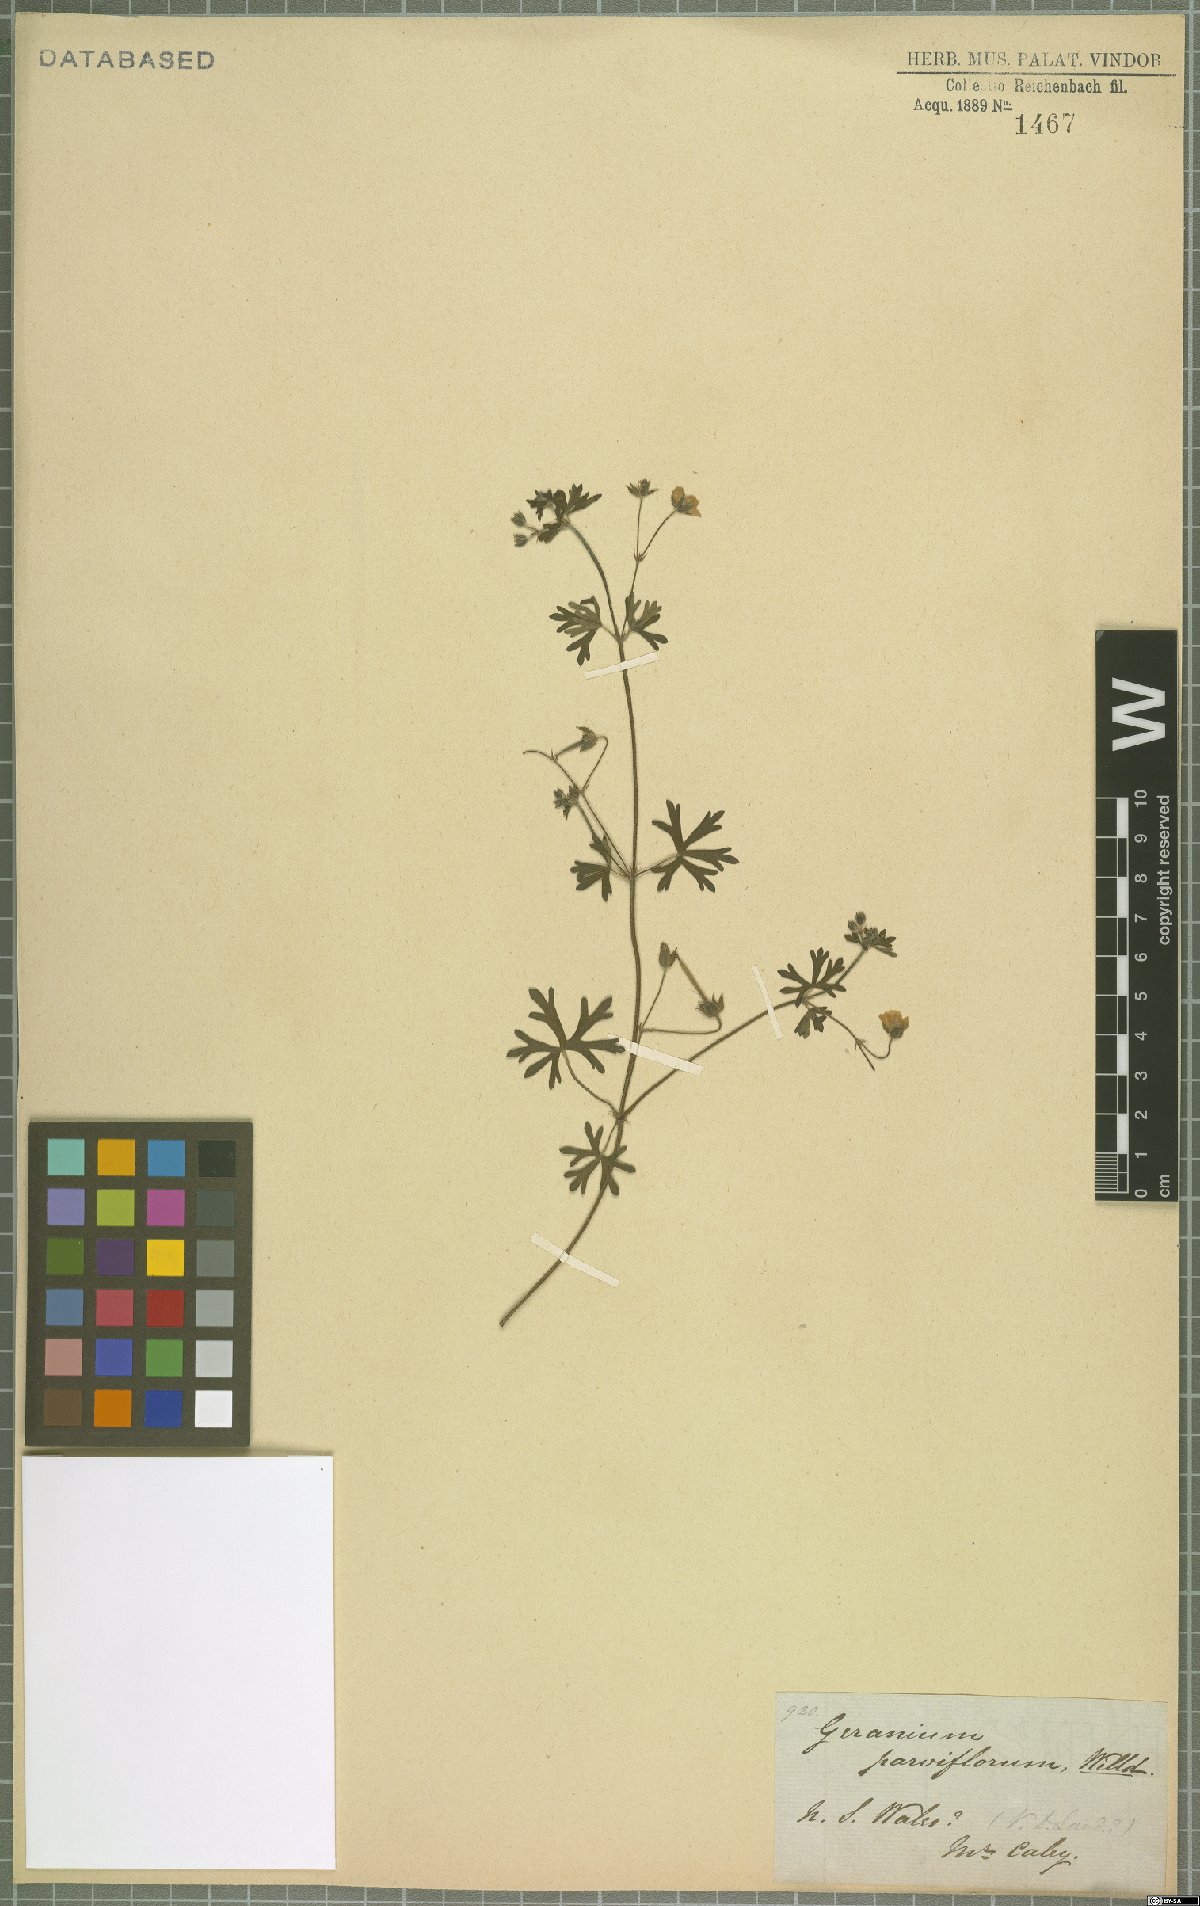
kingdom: Plantae
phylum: Tracheophyta
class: Magnoliopsida
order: Geraniales
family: Geraniaceae
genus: Geranium
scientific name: Geranium solanderi
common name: Solander's geranium
